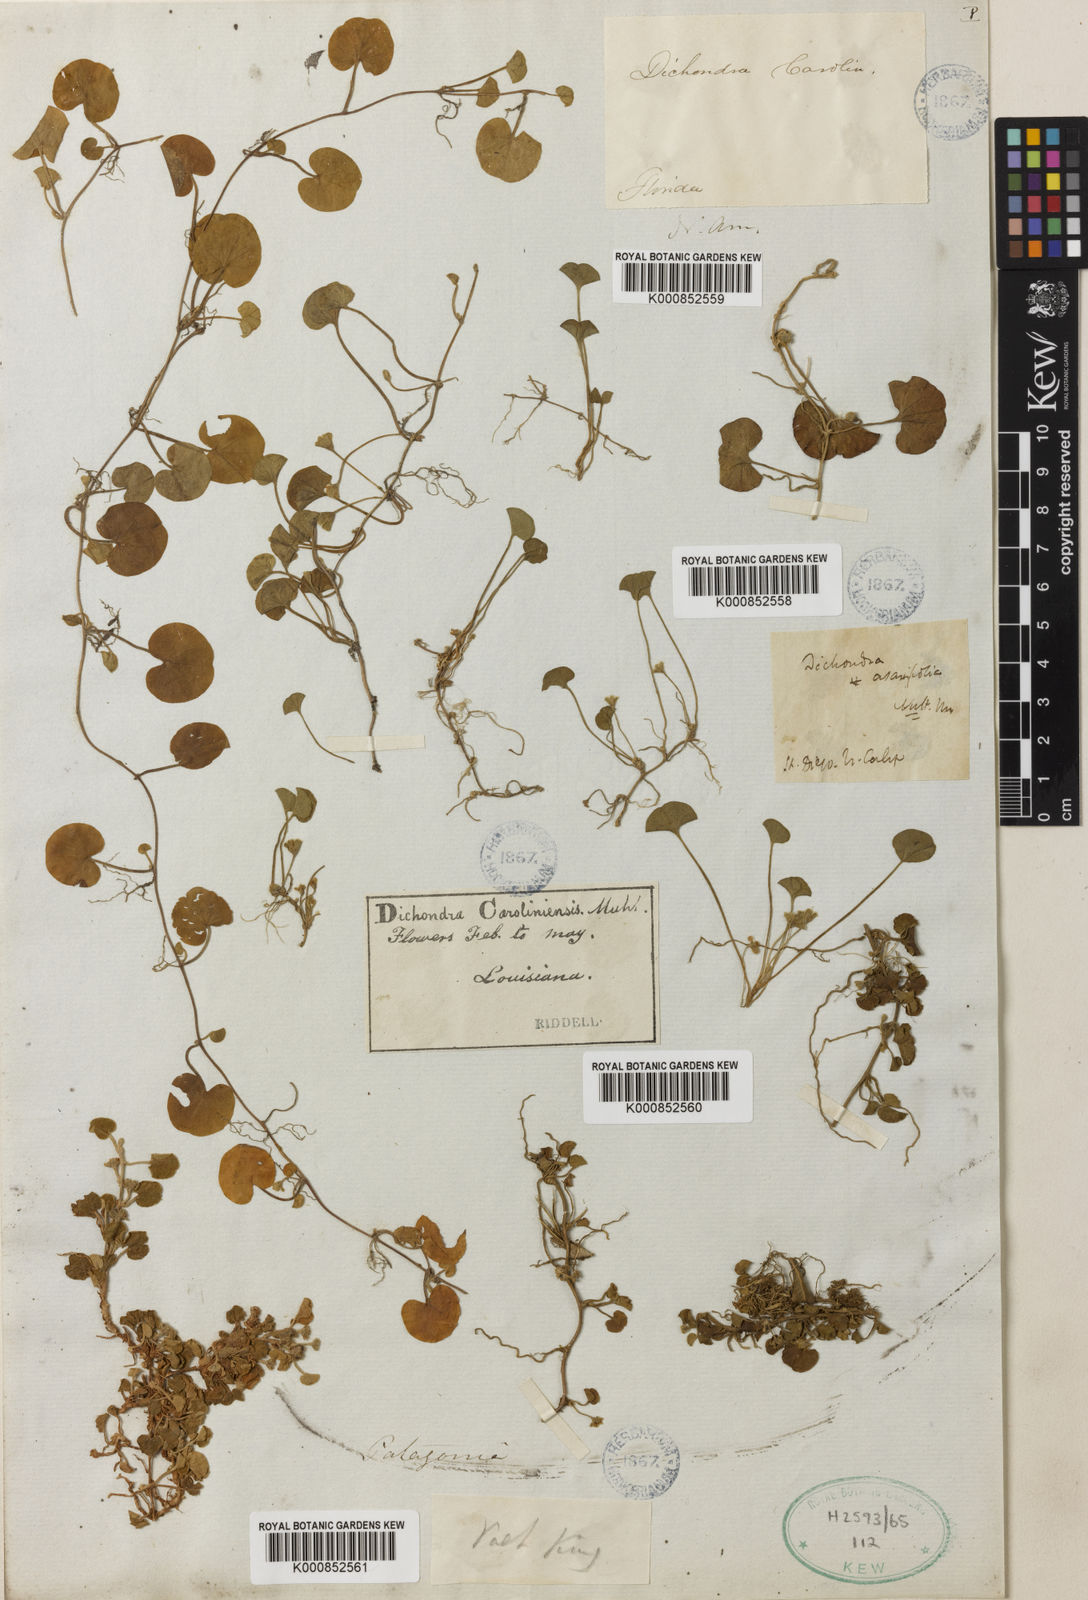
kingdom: Plantae
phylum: Tracheophyta
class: Magnoliopsida
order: Solanales
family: Convolvulaceae
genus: Dichondra
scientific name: Dichondra carolinensis
